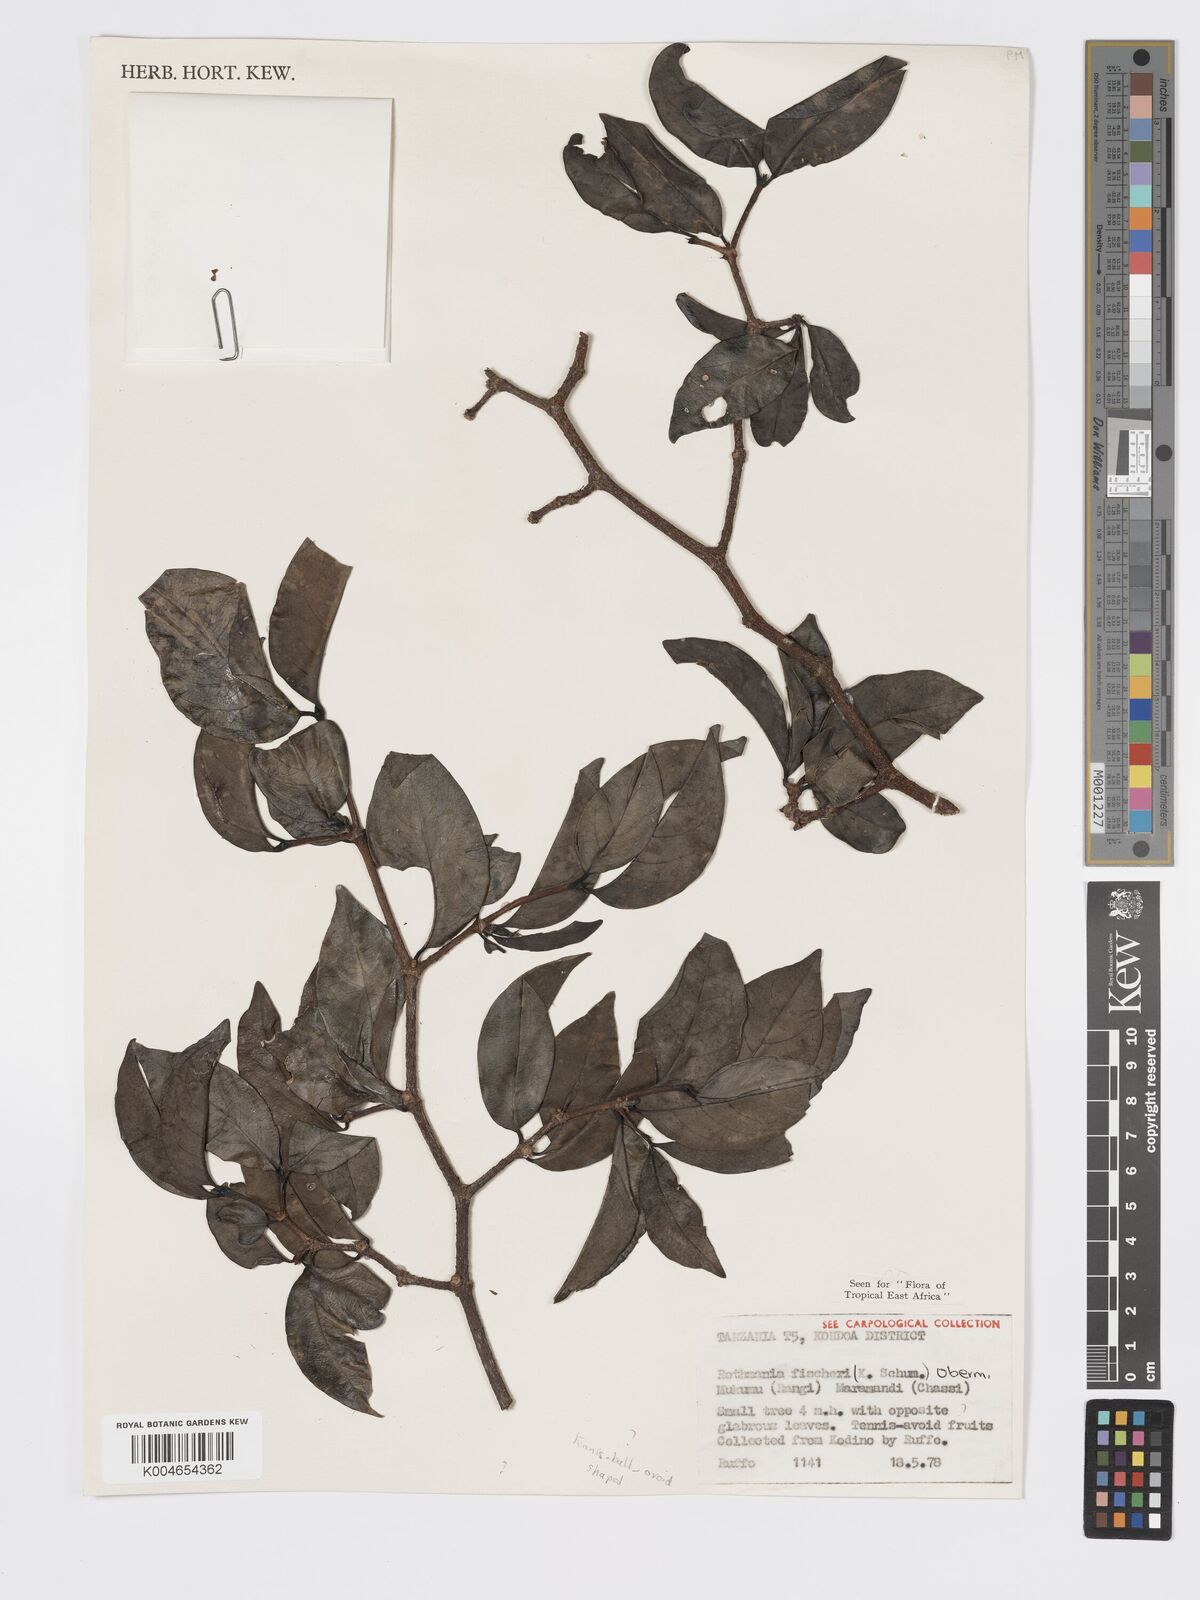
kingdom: Plantae
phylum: Tracheophyta
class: Magnoliopsida
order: Gentianales
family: Rubiaceae
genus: Rothmannia
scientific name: Rothmannia fischeri
